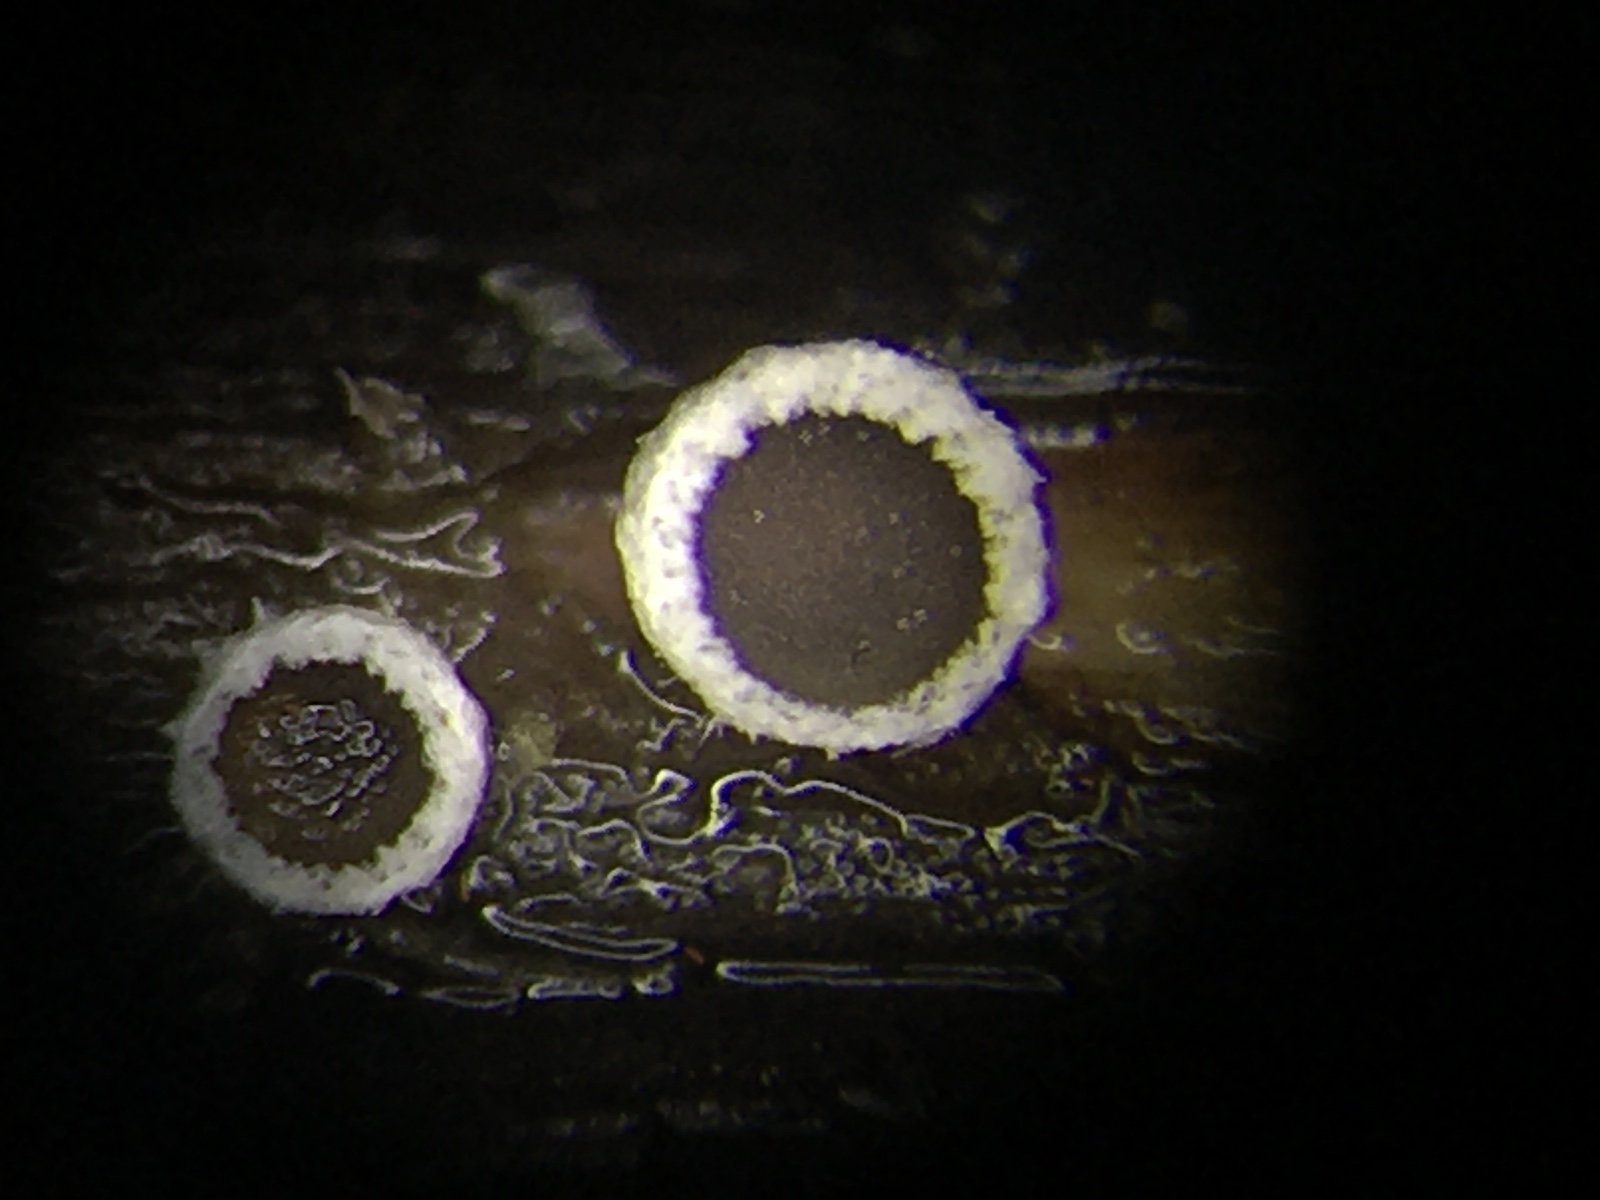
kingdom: Fungi
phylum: Basidiomycota
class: Agaricomycetes
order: Agaricales
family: Niaceae
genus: Lachnella
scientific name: Lachnella alboviolascens
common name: grå frynserede
